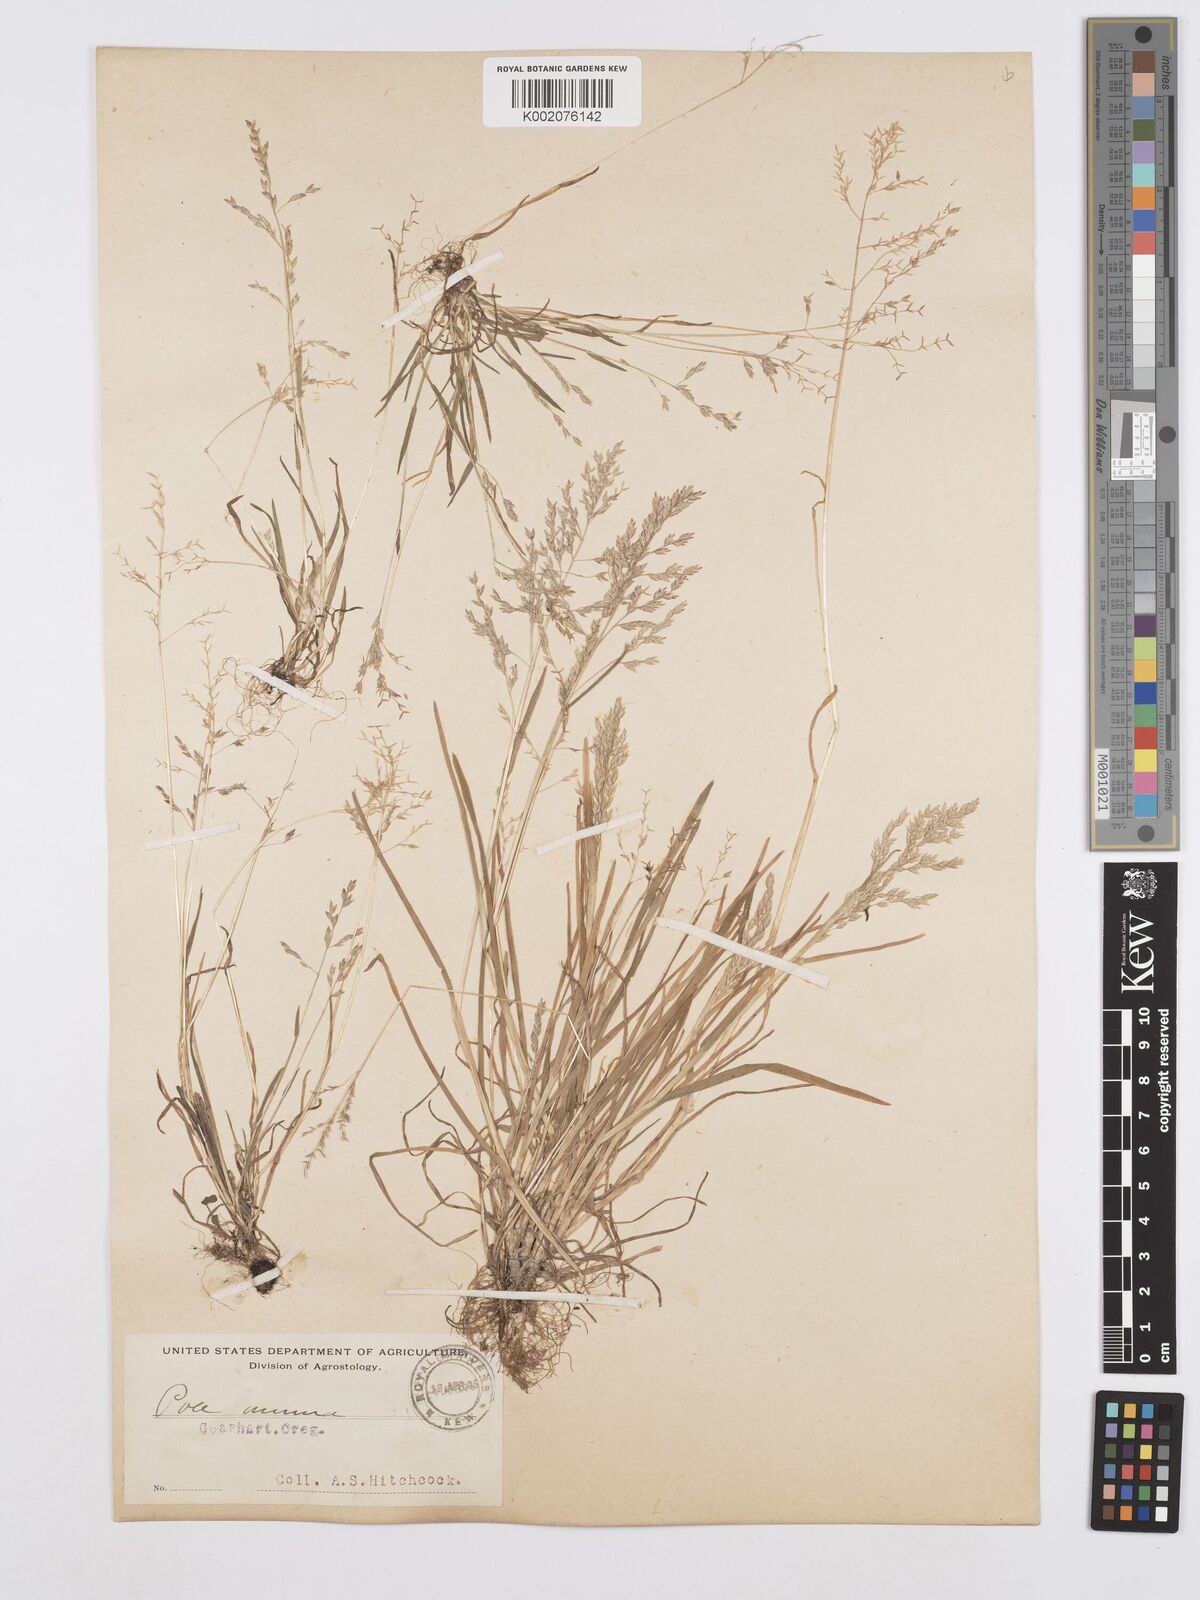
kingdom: Plantae
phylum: Tracheophyta
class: Liliopsida
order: Poales
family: Poaceae
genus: Poa
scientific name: Poa annua
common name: Annual bluegrass
